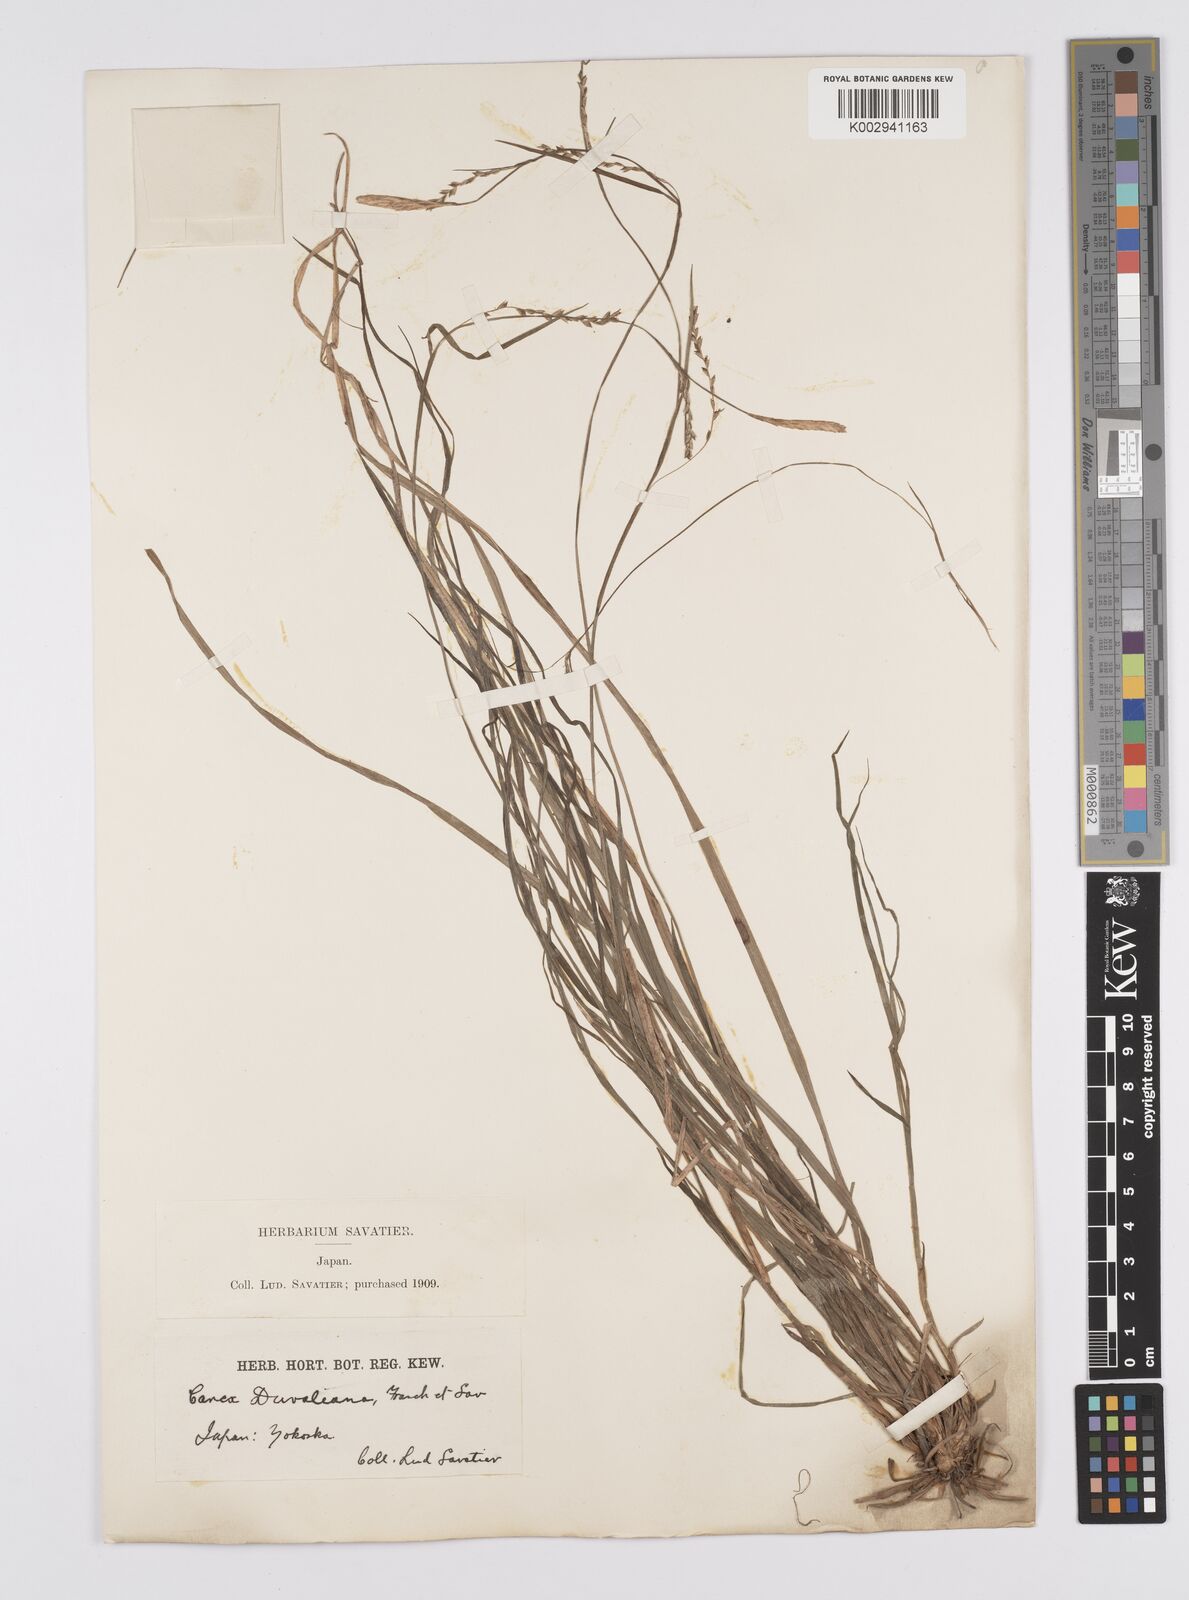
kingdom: Plantae
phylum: Tracheophyta
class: Liliopsida
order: Poales
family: Cyperaceae
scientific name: Cyperaceae
